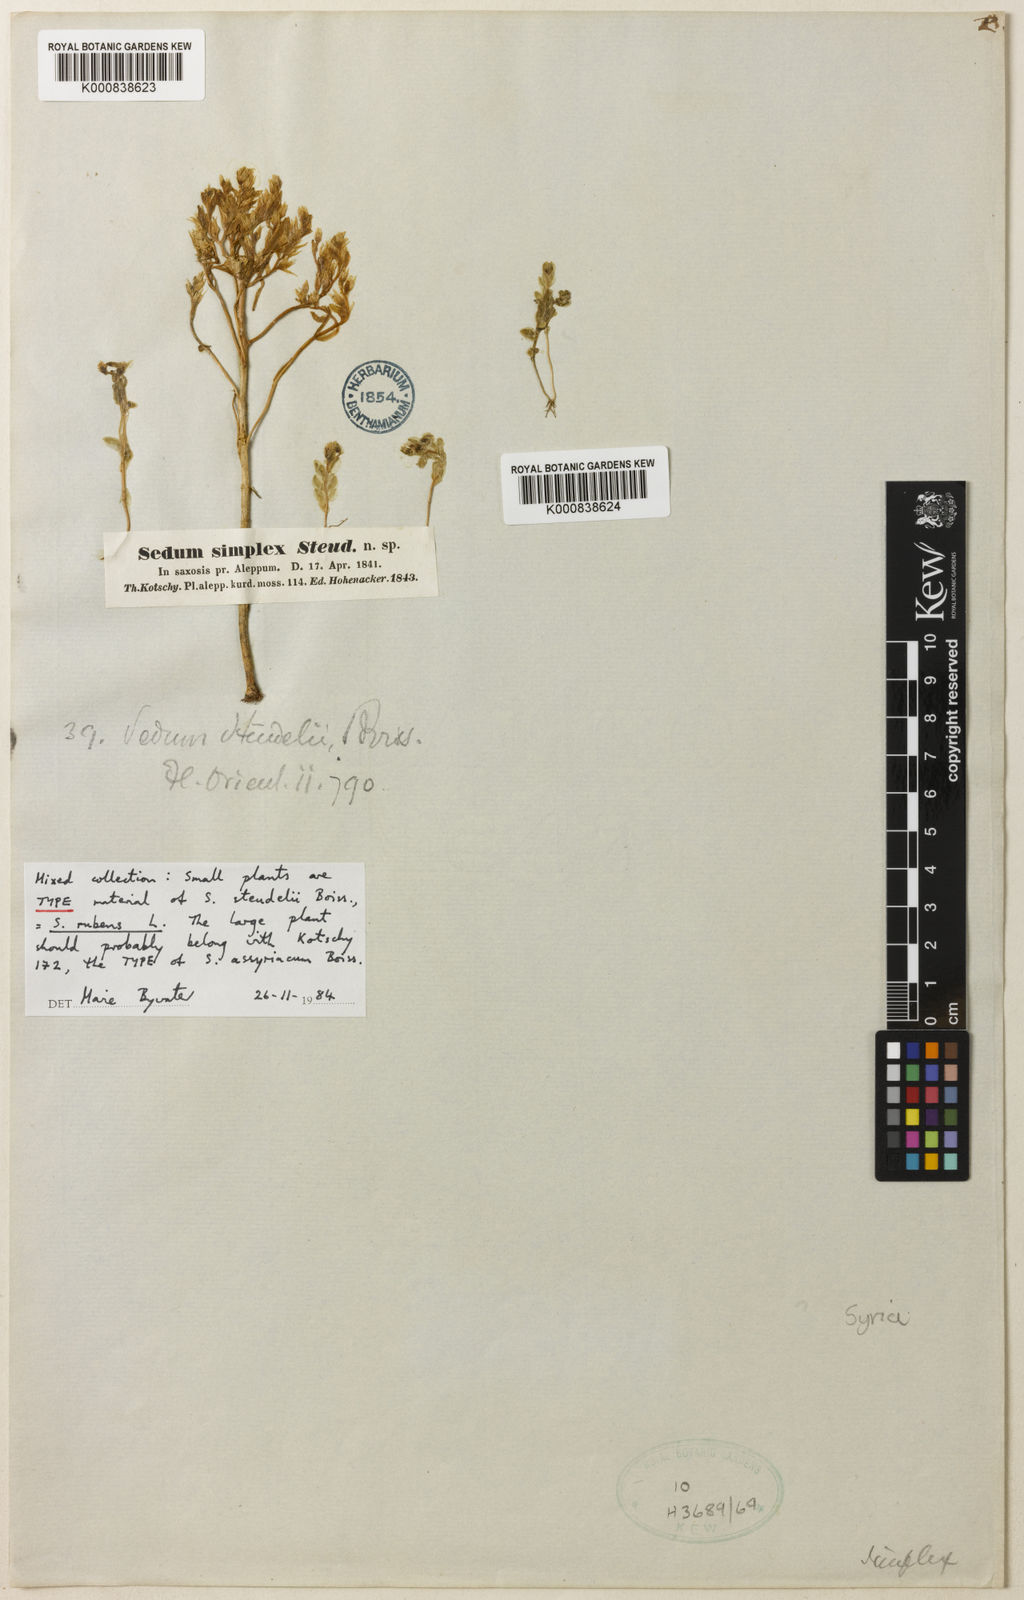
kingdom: Plantae
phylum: Tracheophyta
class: Magnoliopsida
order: Saxifragales
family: Crassulaceae
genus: Sedum
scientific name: Sedum nanum
